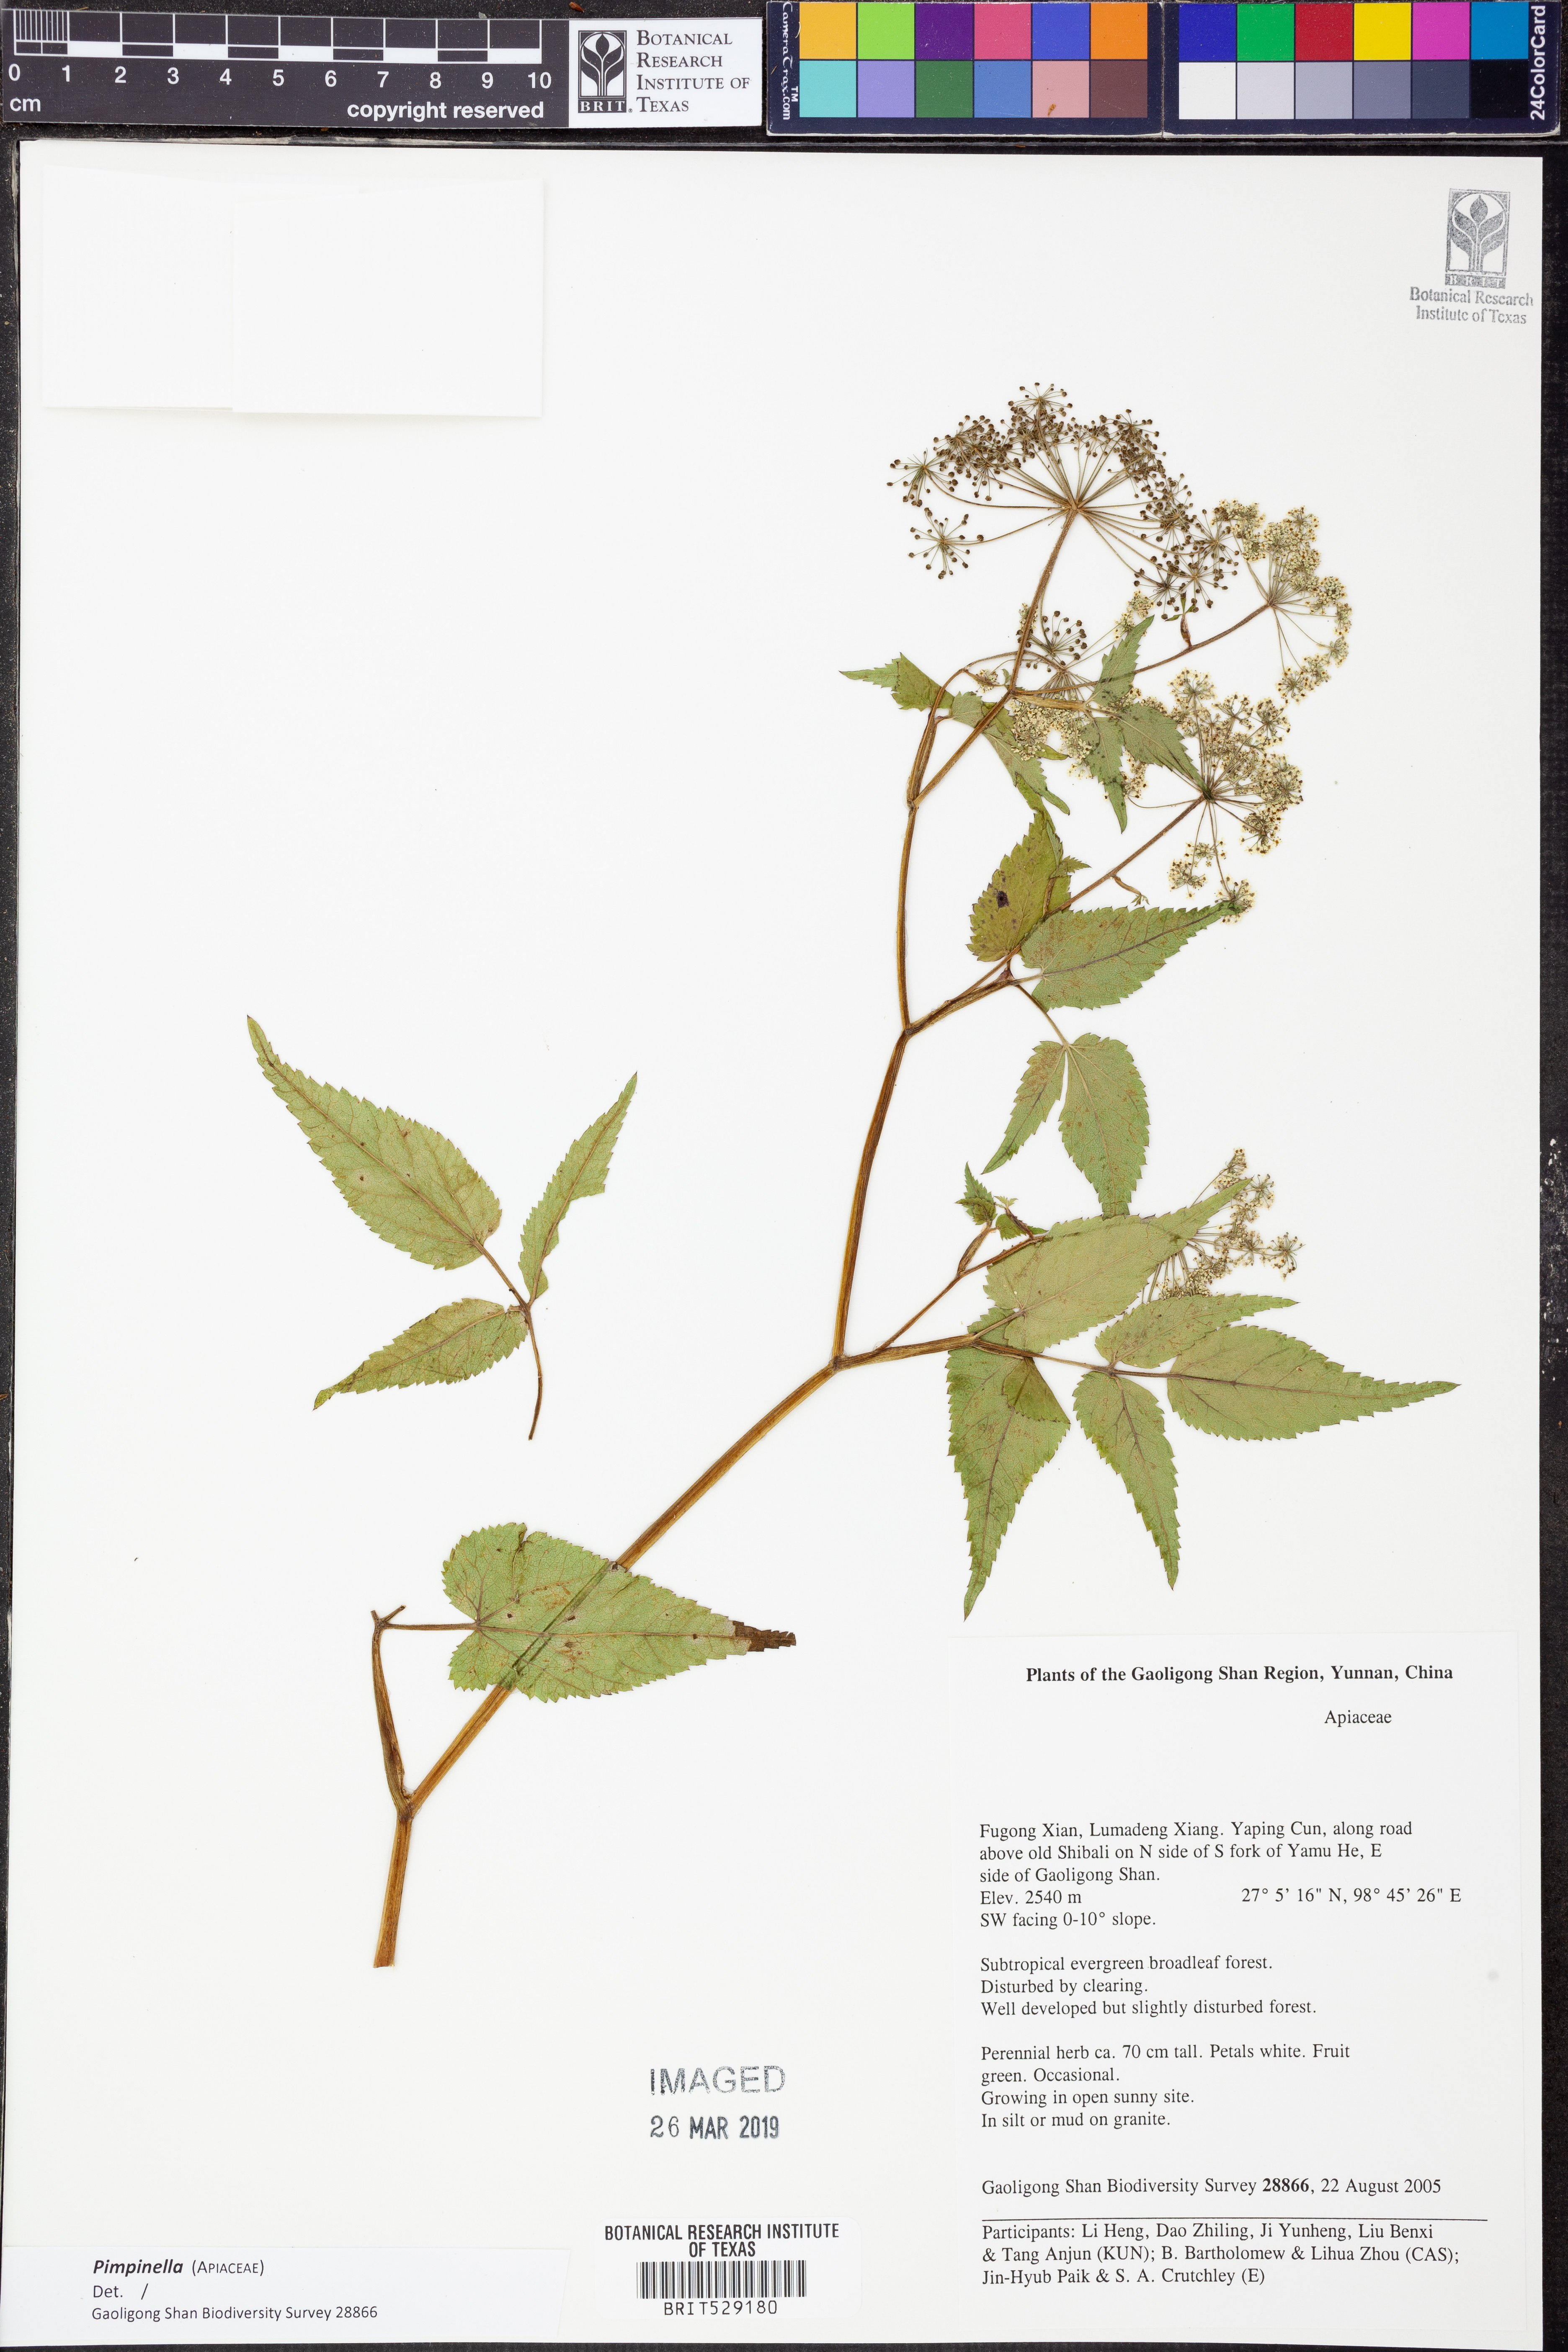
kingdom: Plantae
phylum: Tracheophyta
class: Magnoliopsida
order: Apiales
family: Apiaceae
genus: Pimpinella
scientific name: Pimpinella
